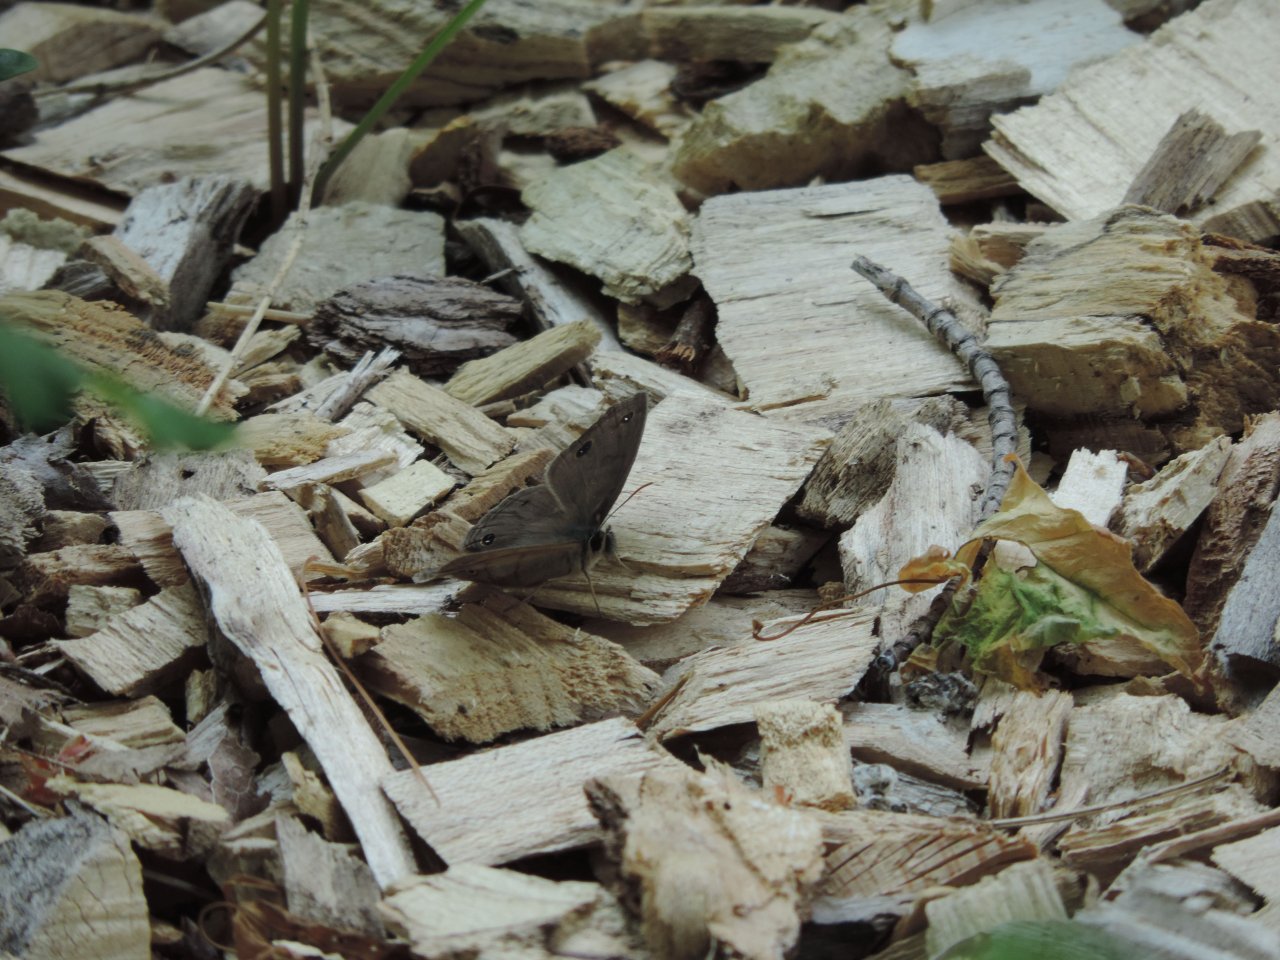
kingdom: Animalia
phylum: Arthropoda
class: Insecta
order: Lepidoptera
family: Nymphalidae
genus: Euptychia
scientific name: Euptychia cymela
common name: Little Wood Satyr
